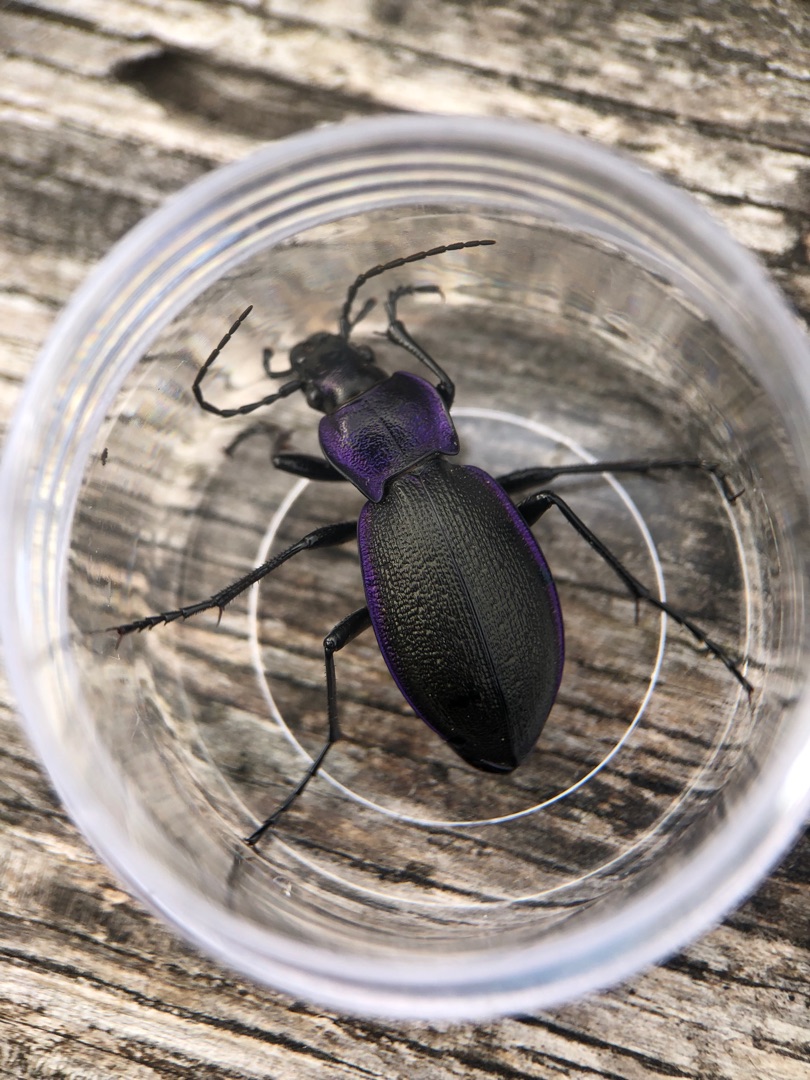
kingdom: Animalia
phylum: Arthropoda
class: Insecta
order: Coleoptera
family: Carabidae
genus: Carabus
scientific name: Carabus problematicus
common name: Jysk løber
